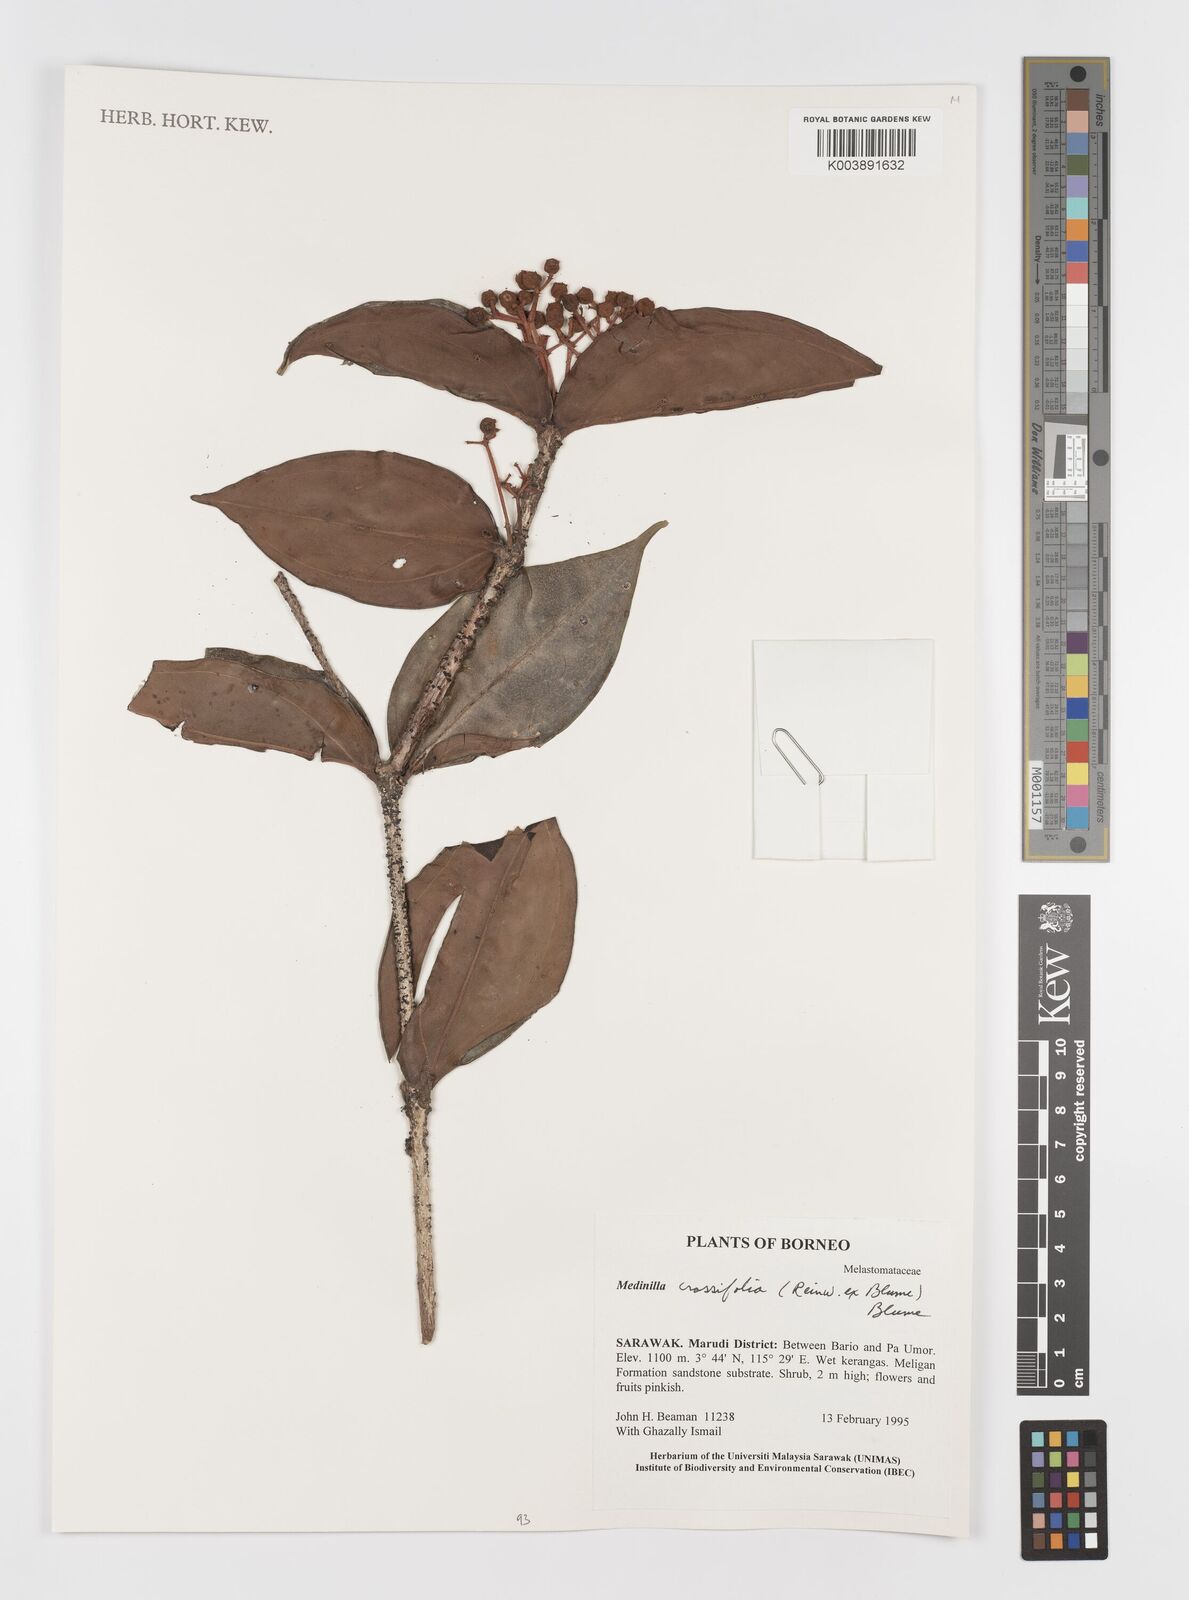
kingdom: Plantae
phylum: Tracheophyta
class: Magnoliopsida
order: Myrtales
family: Melastomataceae
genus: Medinilla
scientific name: Medinilla crassifolia
